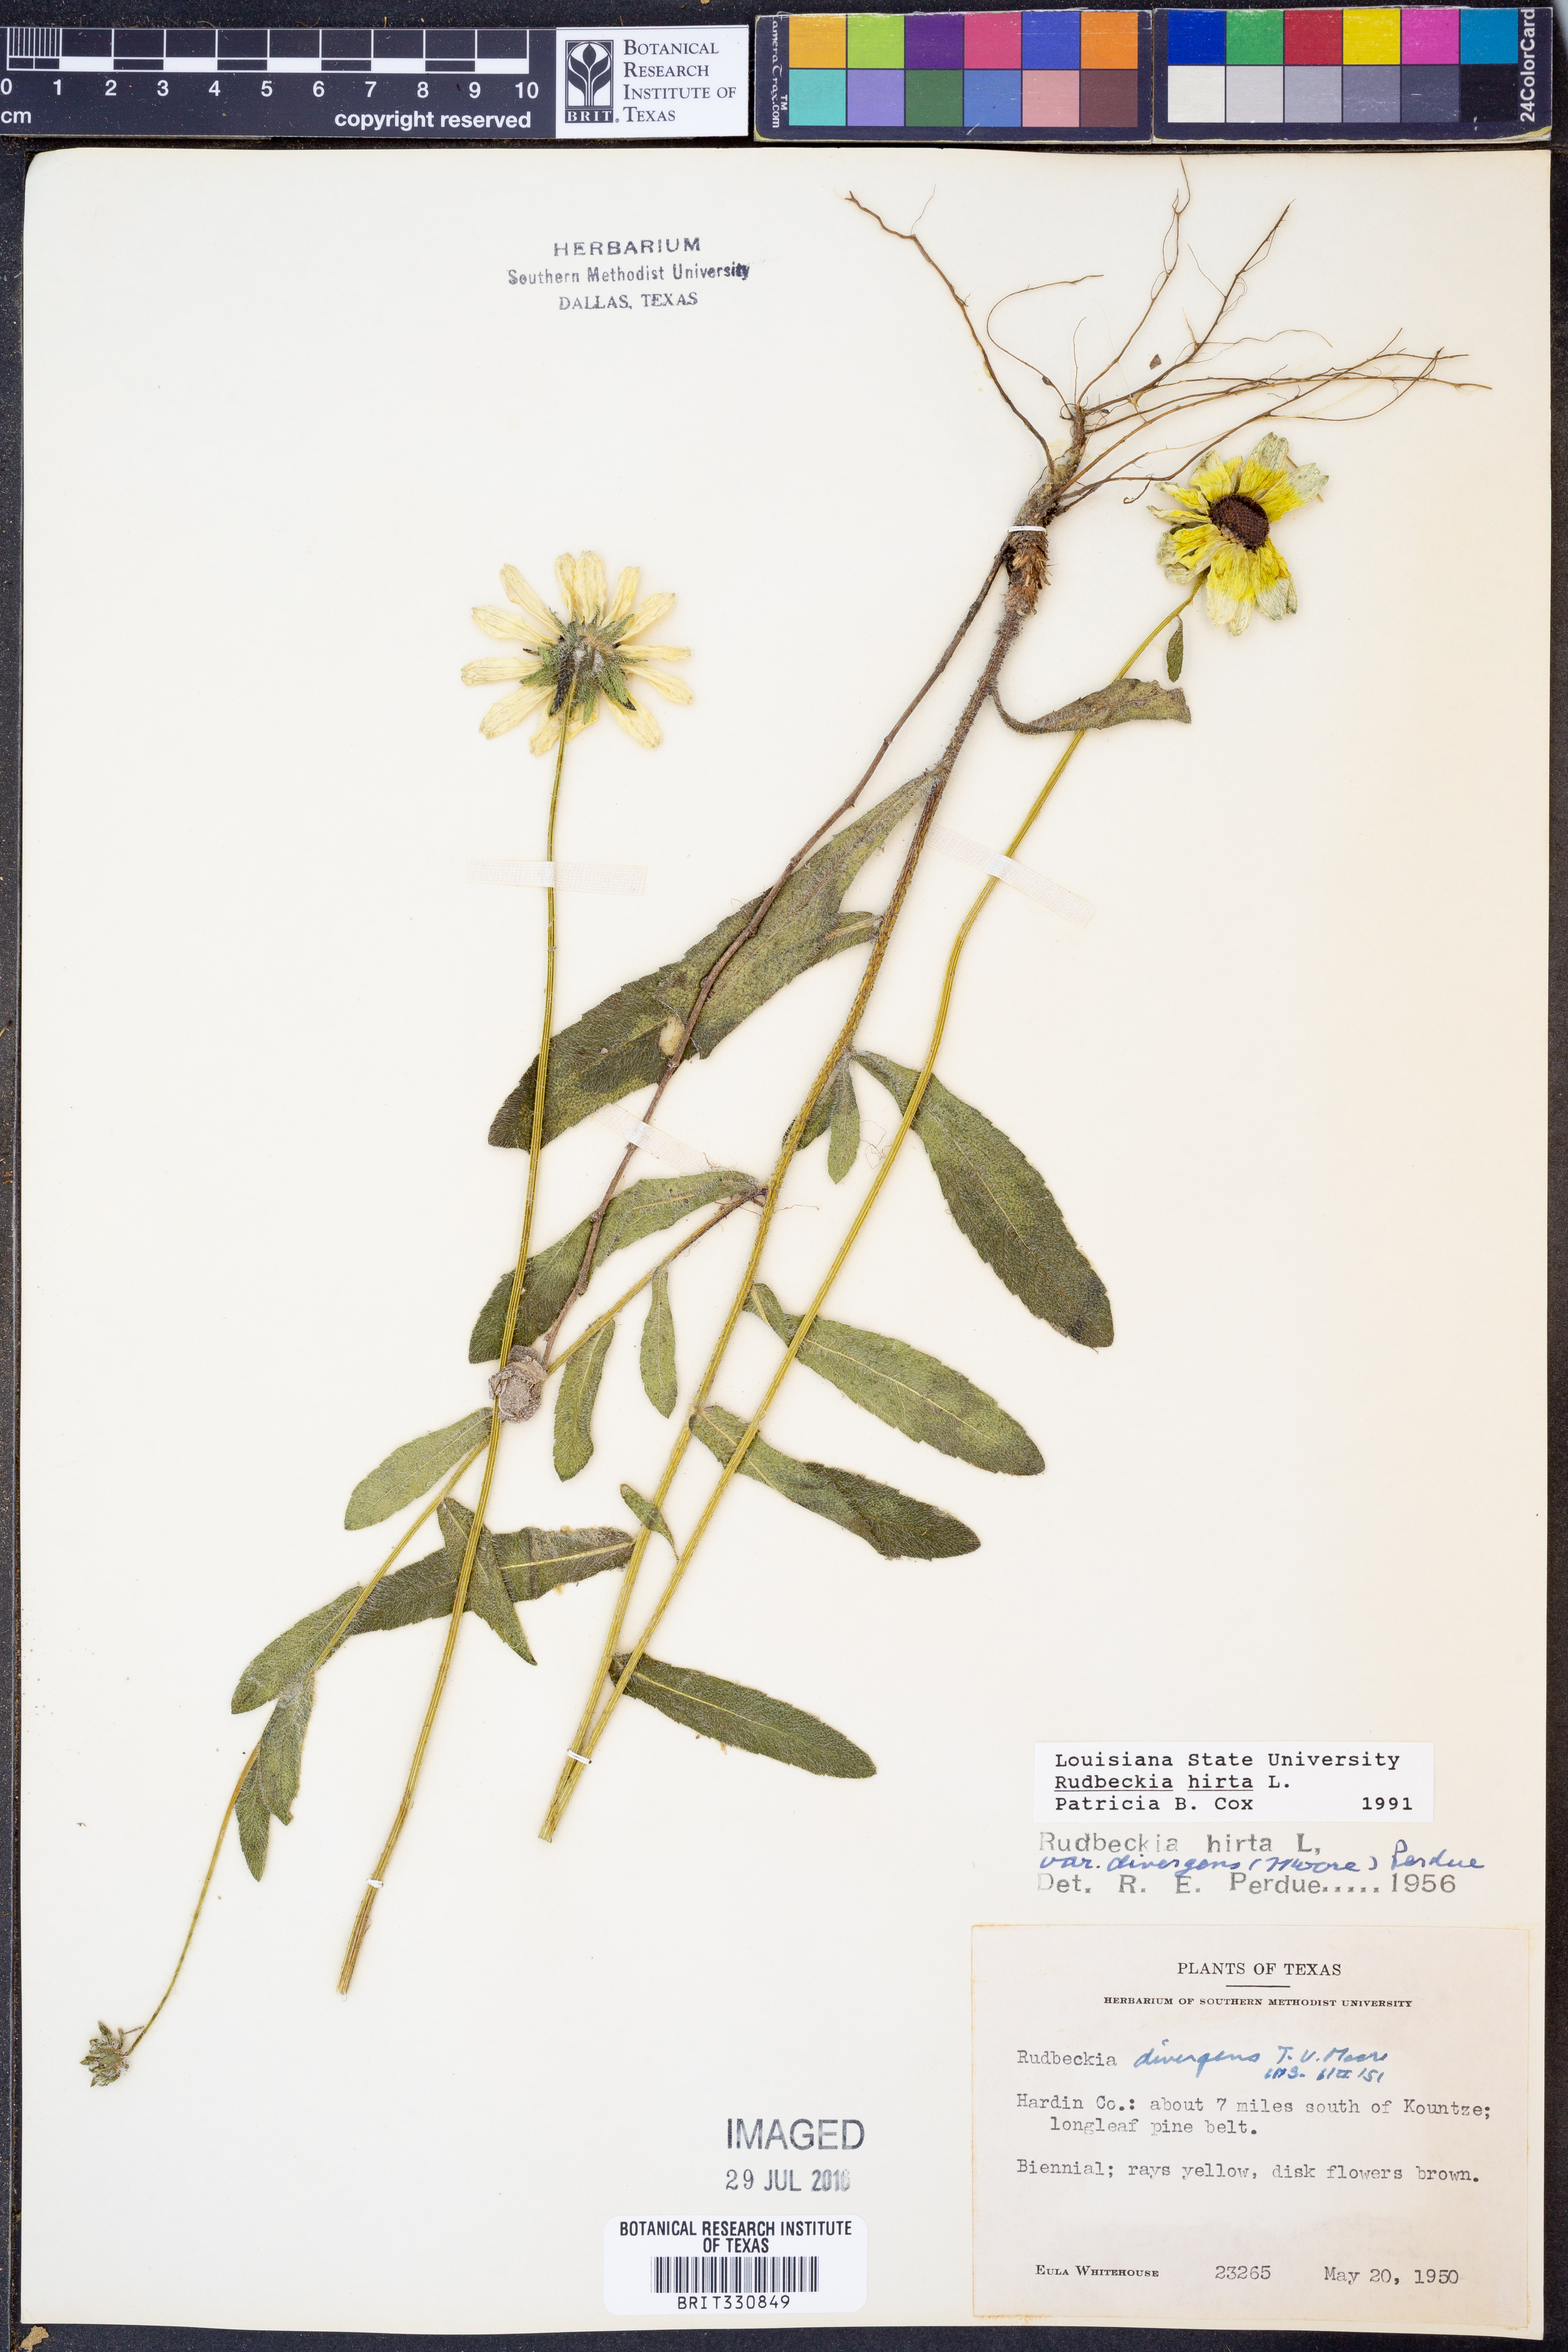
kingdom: Plantae
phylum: Tracheophyta
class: Magnoliopsida
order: Asterales
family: Asteraceae
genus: Rudbeckia
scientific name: Rudbeckia hirta
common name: Black-eyed-susan
